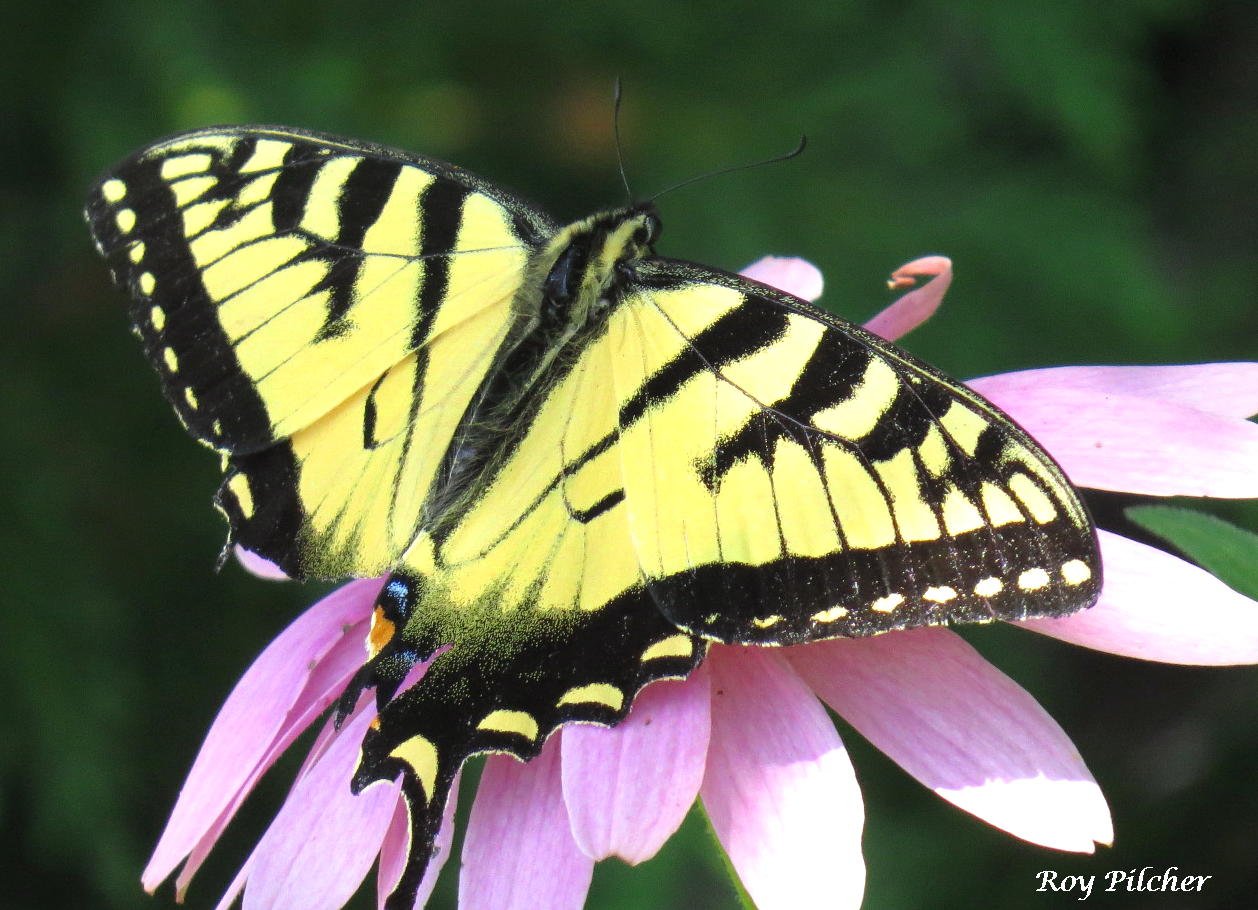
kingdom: Animalia
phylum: Arthropoda
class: Insecta
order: Lepidoptera
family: Papilionidae
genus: Pterourus
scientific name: Pterourus glaucus
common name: Eastern Tiger Swallowtail
